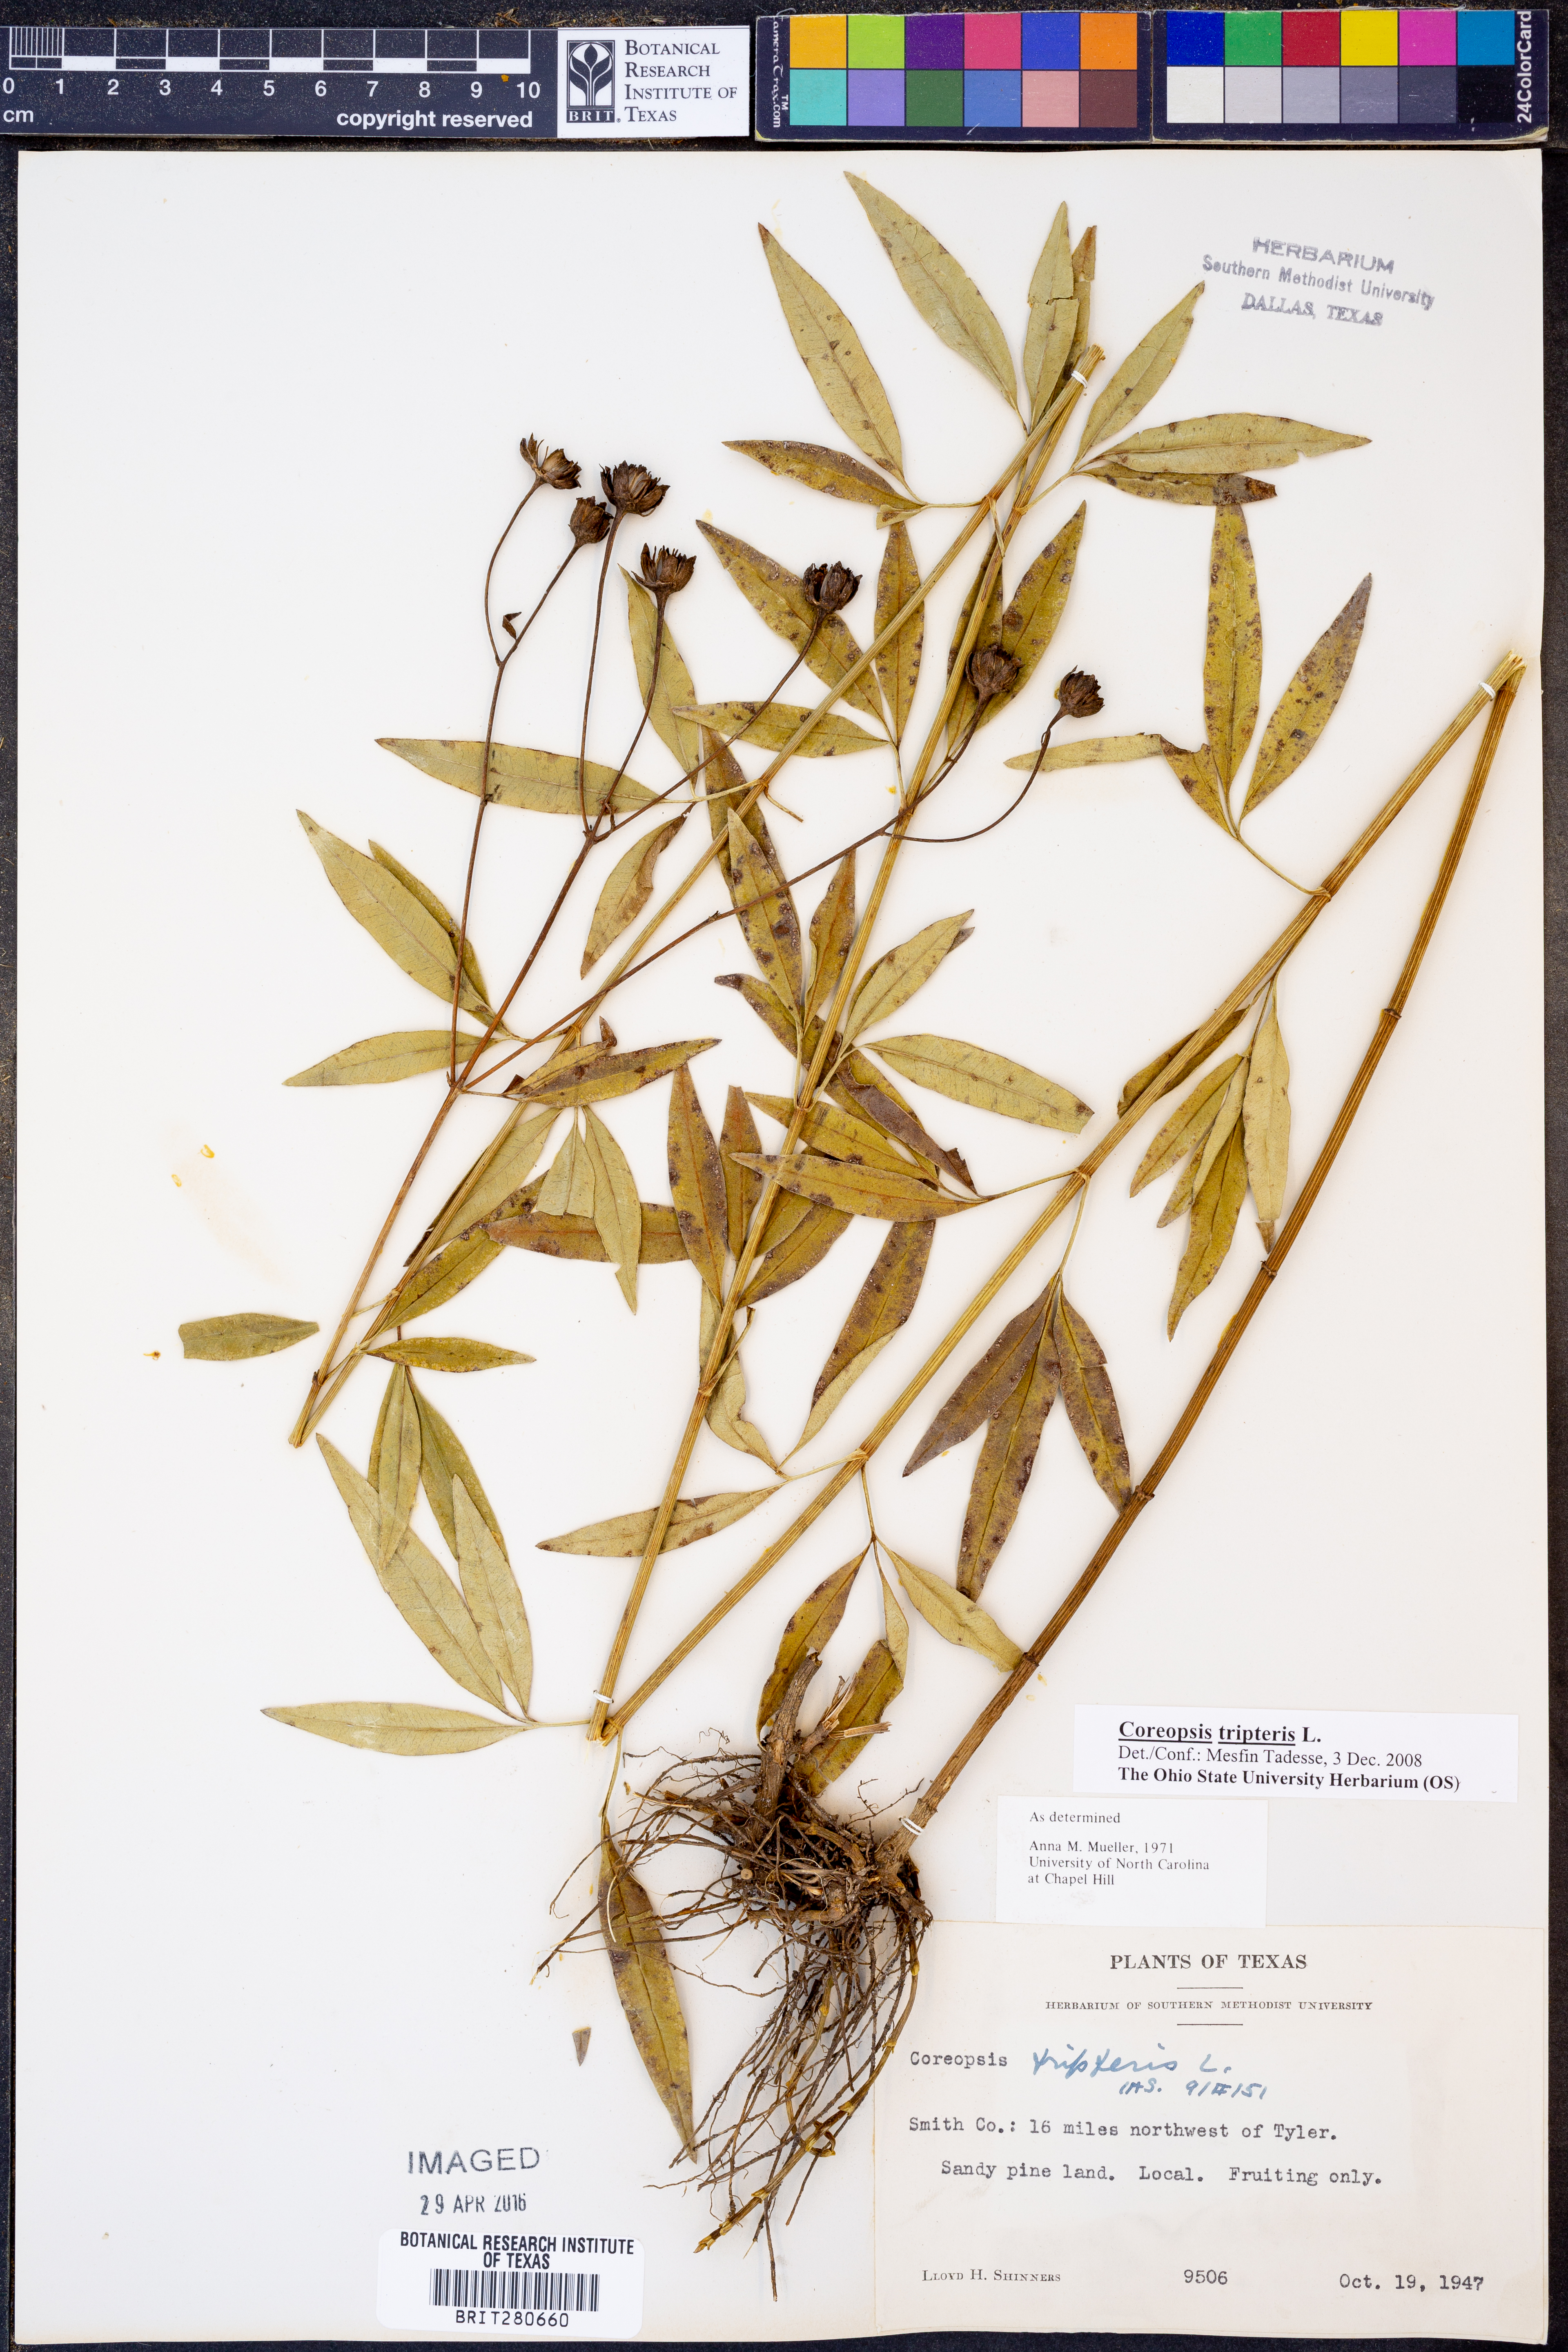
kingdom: Plantae
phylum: Tracheophyta
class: Magnoliopsida
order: Asterales
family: Asteraceae
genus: Coreopsis
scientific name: Coreopsis tripteris
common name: Tall coreopsis
